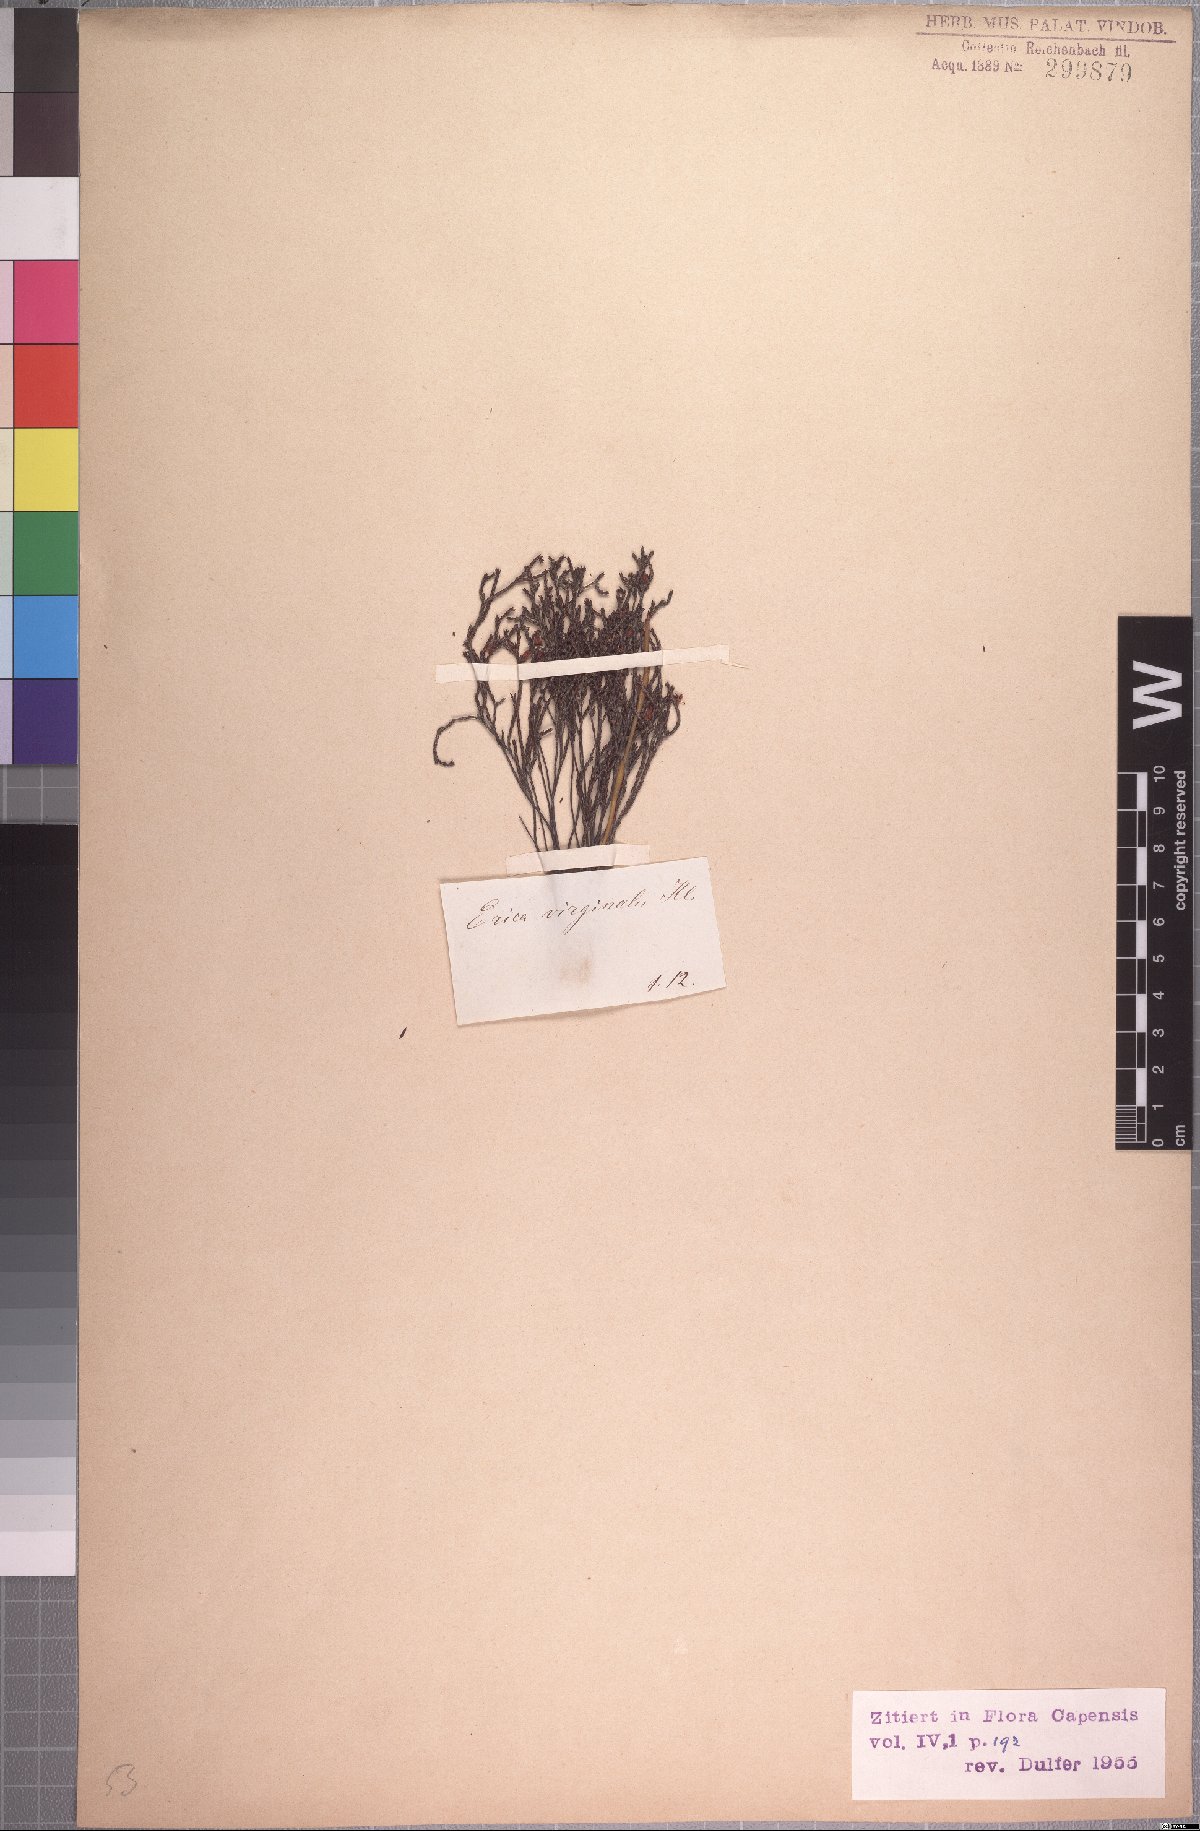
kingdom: Plantae
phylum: Tracheophyta
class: Magnoliopsida
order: Ericales
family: Ericaceae
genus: Erica
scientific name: Erica virginalis
